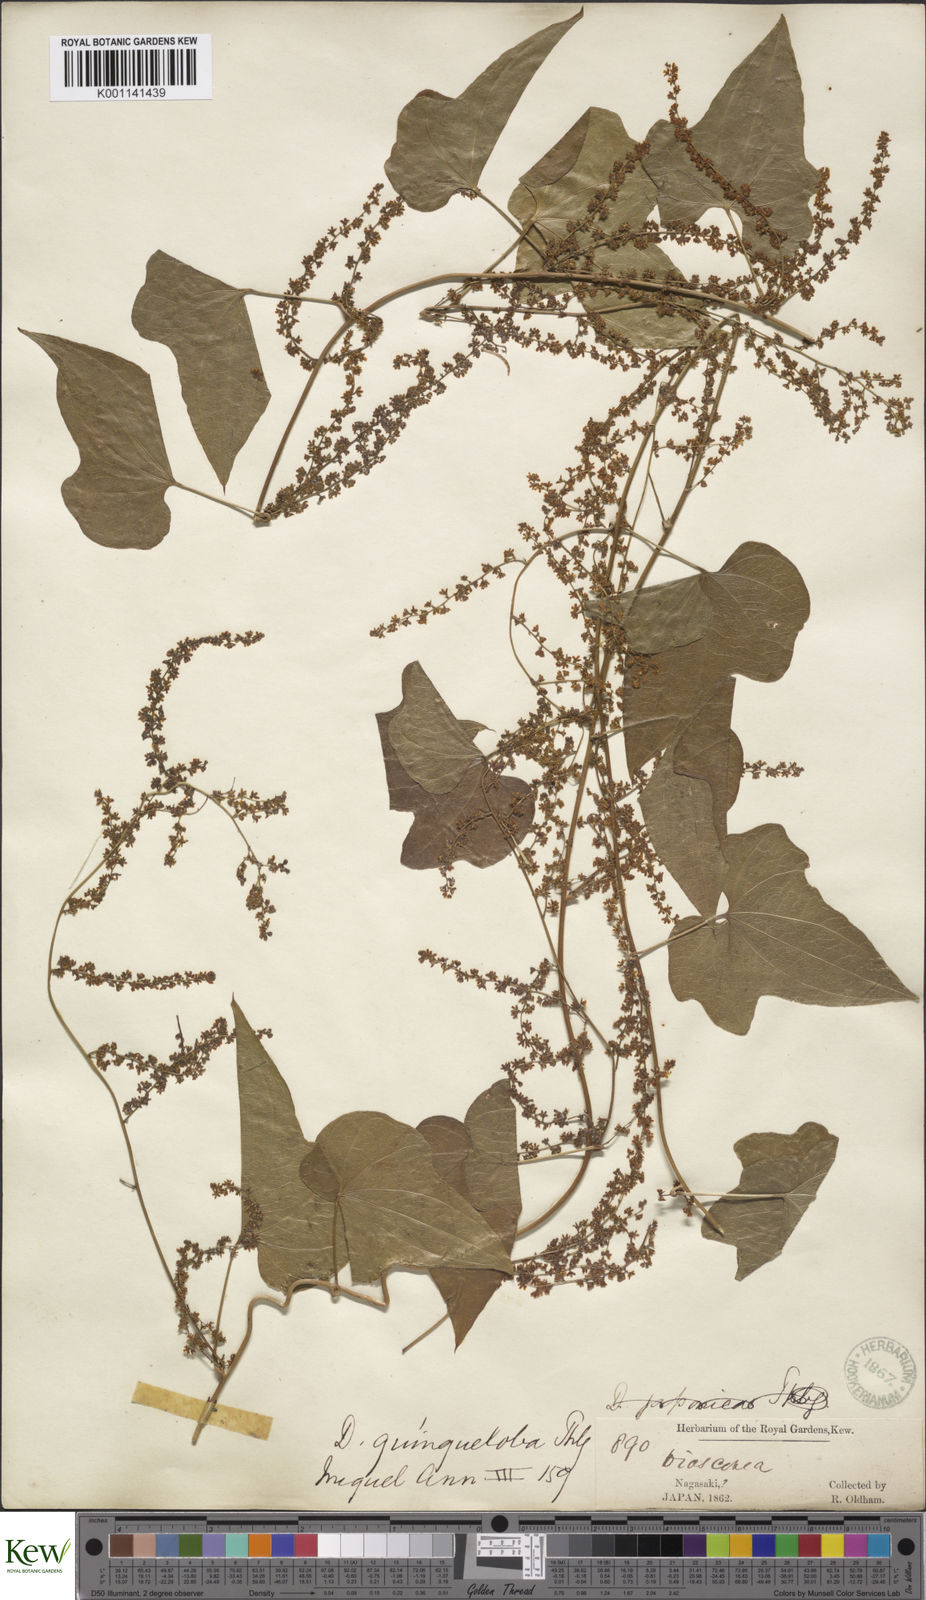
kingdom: Plantae
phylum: Tracheophyta
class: Liliopsida
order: Dioscoreales
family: Dioscoreaceae
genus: Dioscorea
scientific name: Dioscorea quinquelobata
